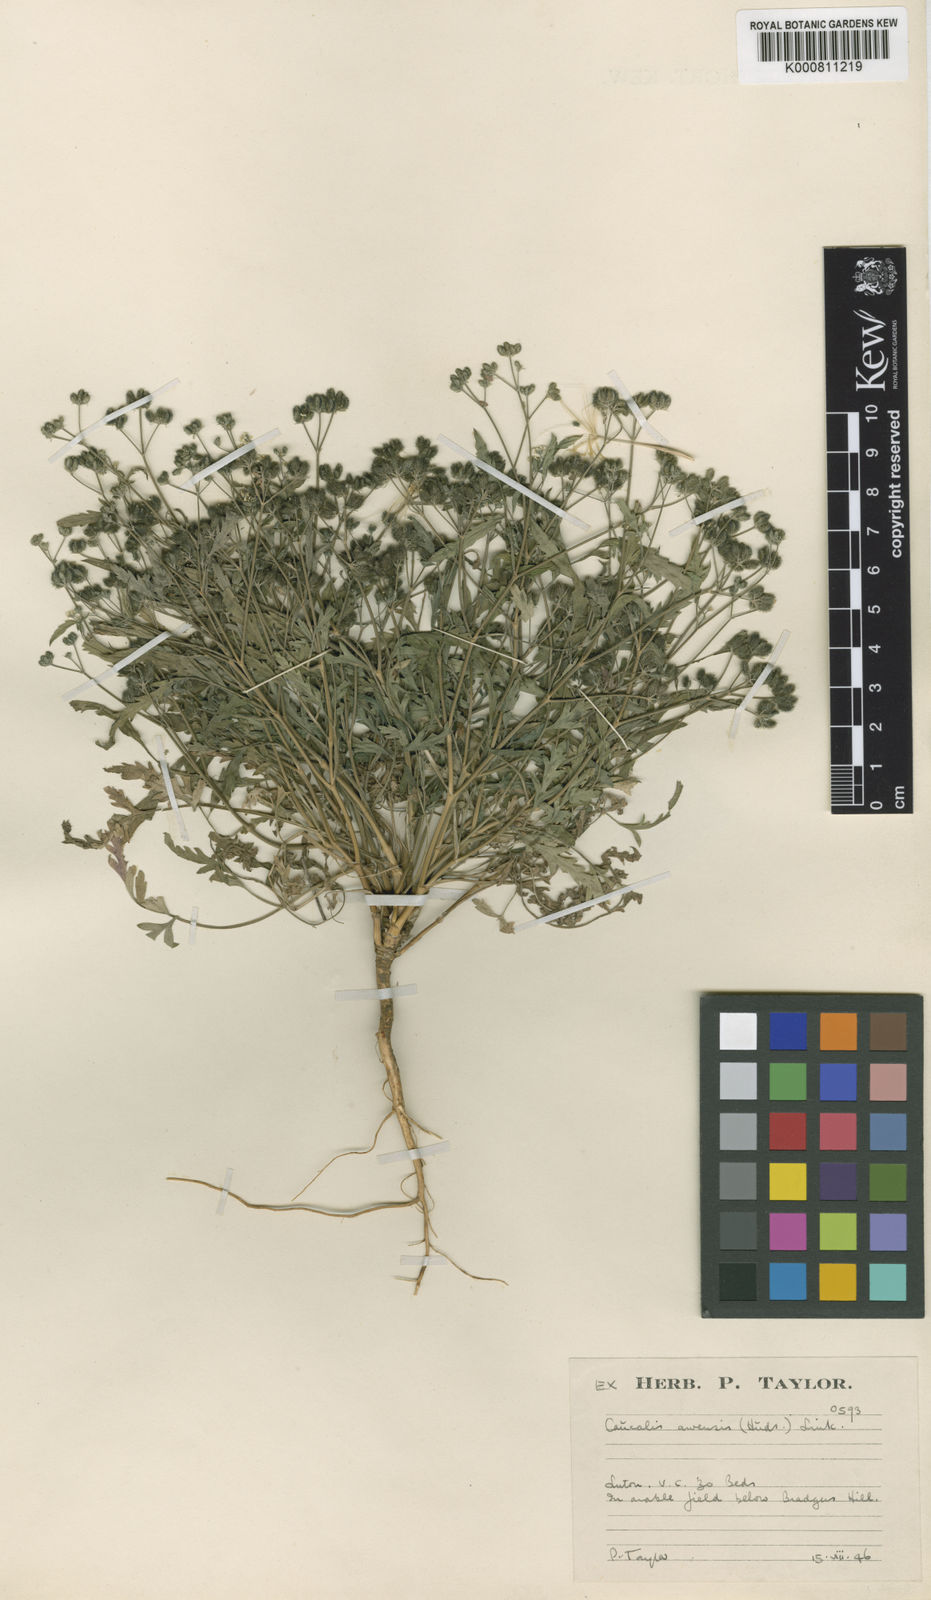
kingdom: Plantae
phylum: Tracheophyta
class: Magnoliopsida
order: Apiales
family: Apiaceae
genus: Torilis
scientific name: Torilis arvensis
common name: Spreading hedge-parsley
